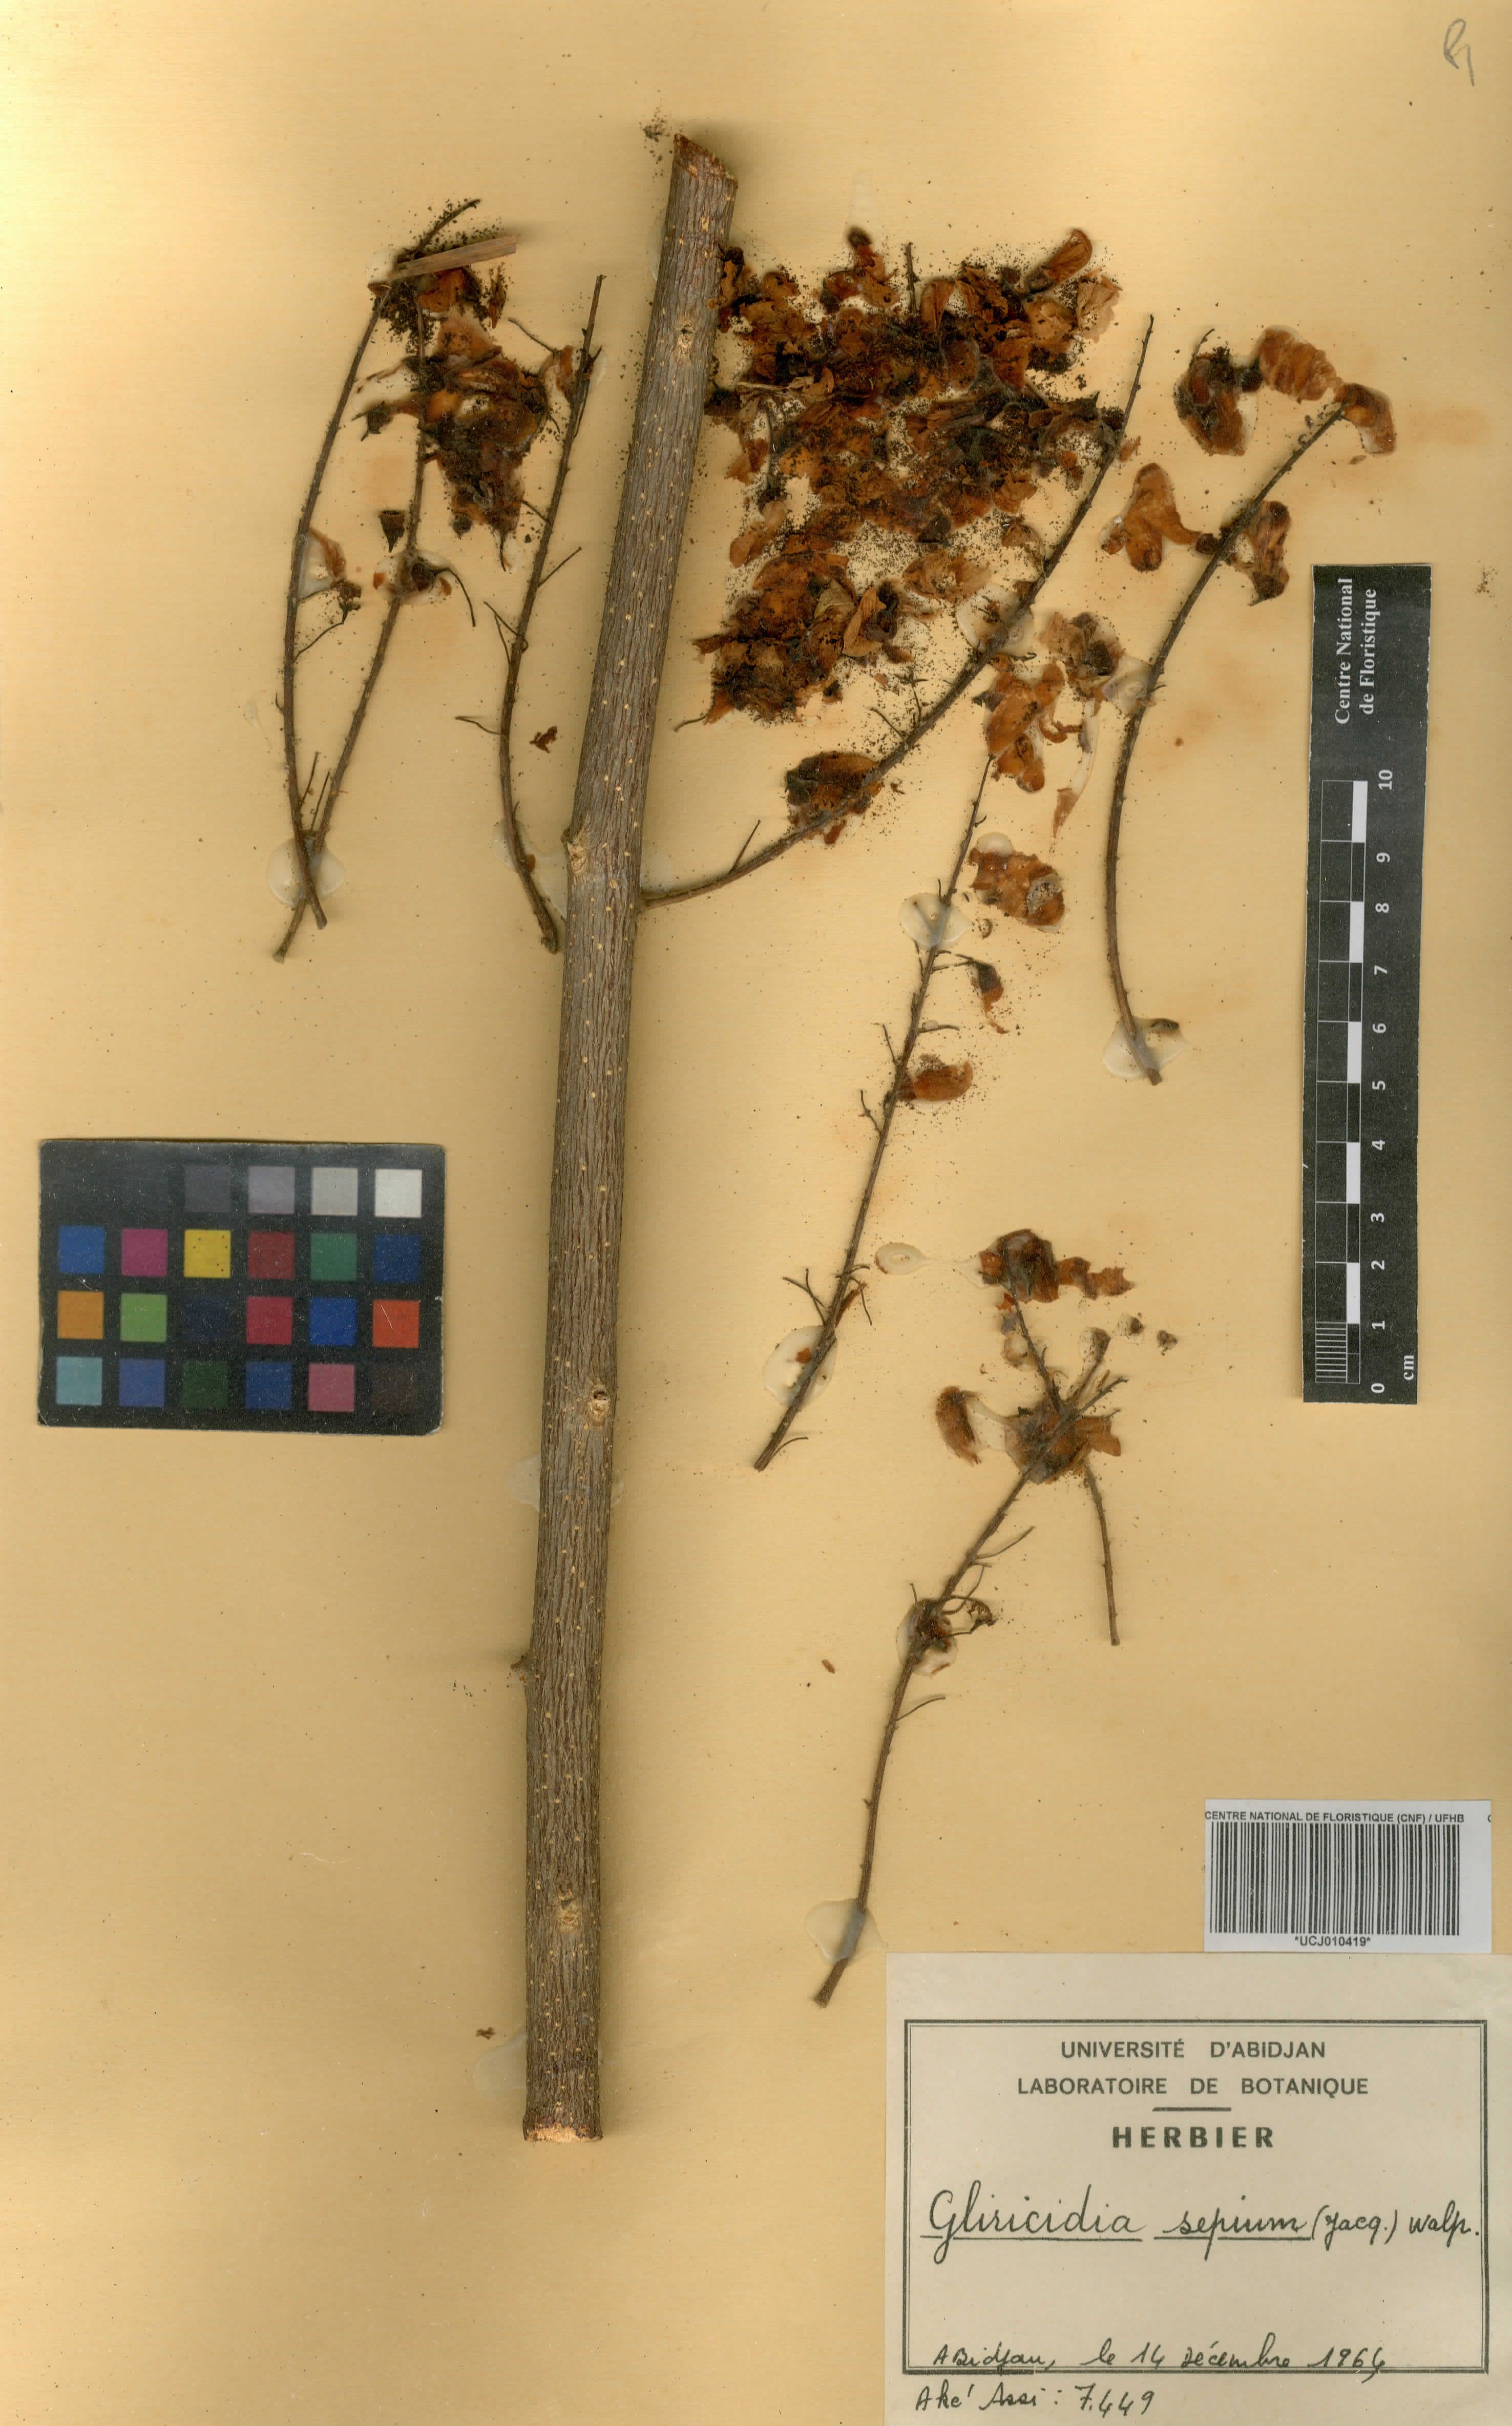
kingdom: Plantae
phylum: Tracheophyta
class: Magnoliopsida
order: Fabales
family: Fabaceae
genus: Gliricidia
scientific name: Gliricidia sepium
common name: Quickstick
